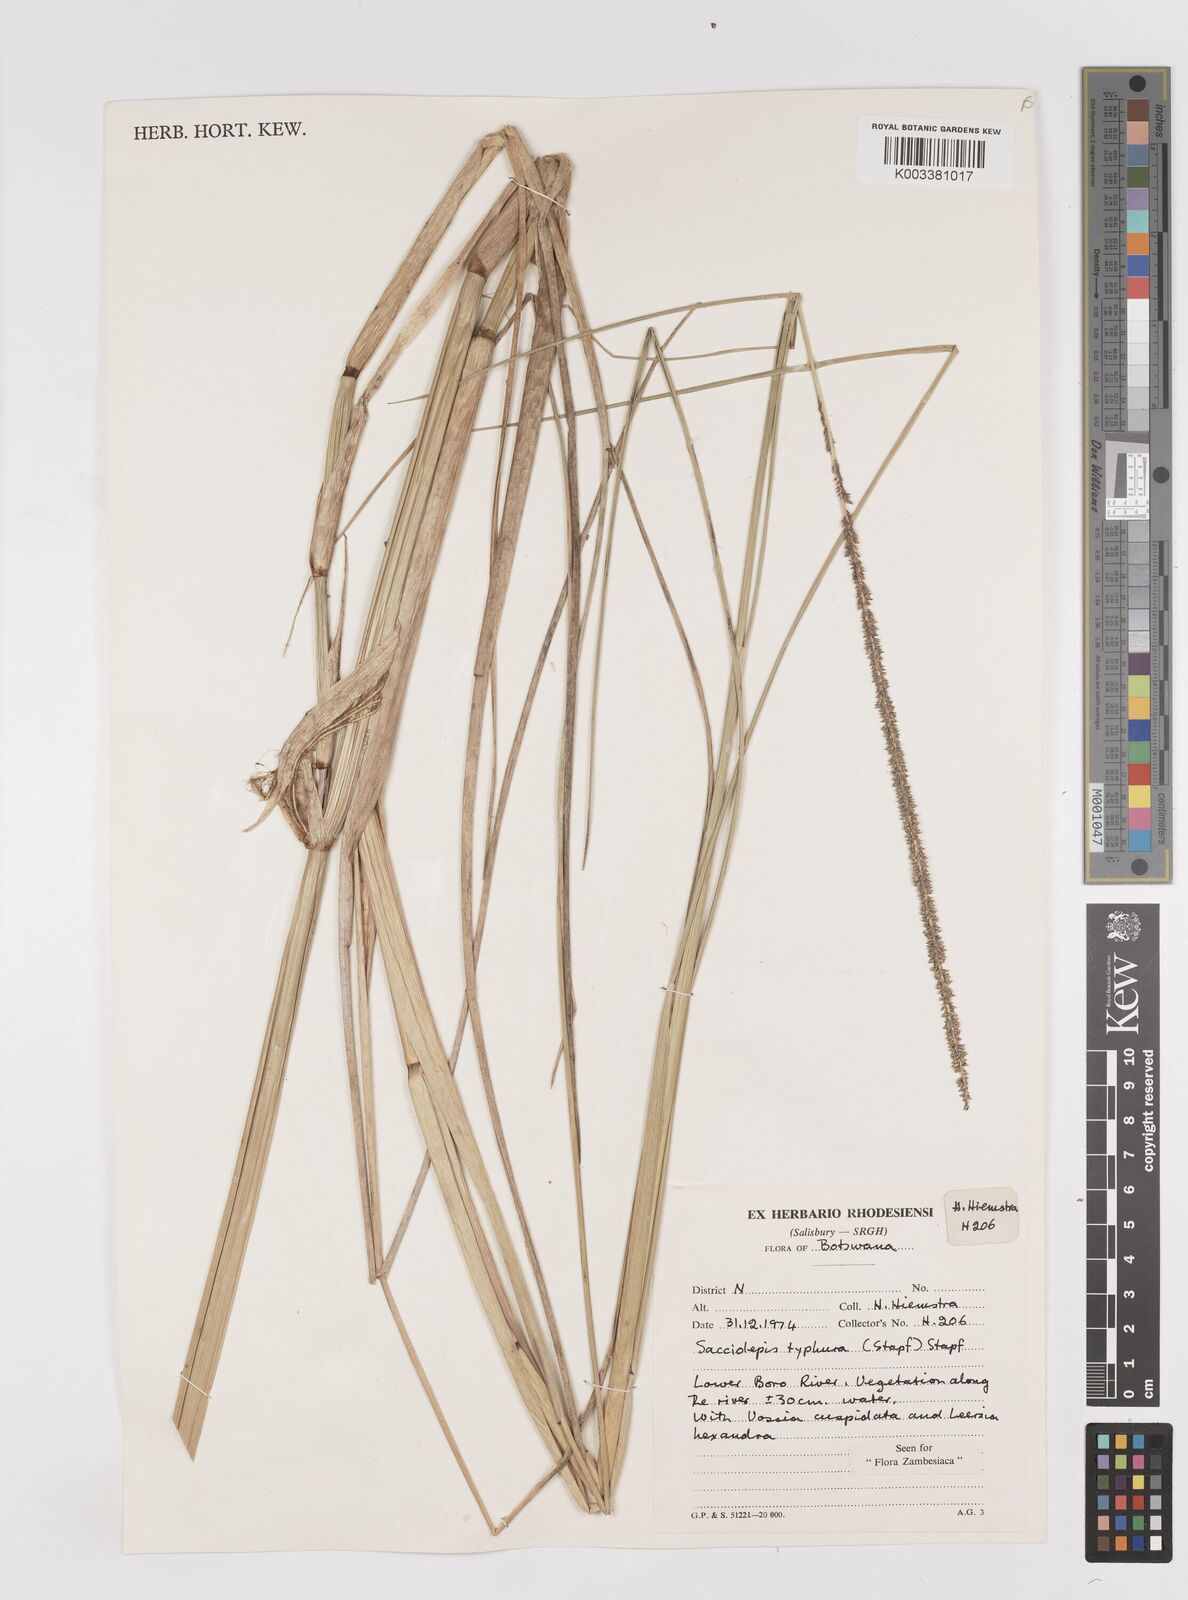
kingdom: Plantae
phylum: Tracheophyta
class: Liliopsida
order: Poales
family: Poaceae
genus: Sacciolepis
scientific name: Sacciolepis typhura
